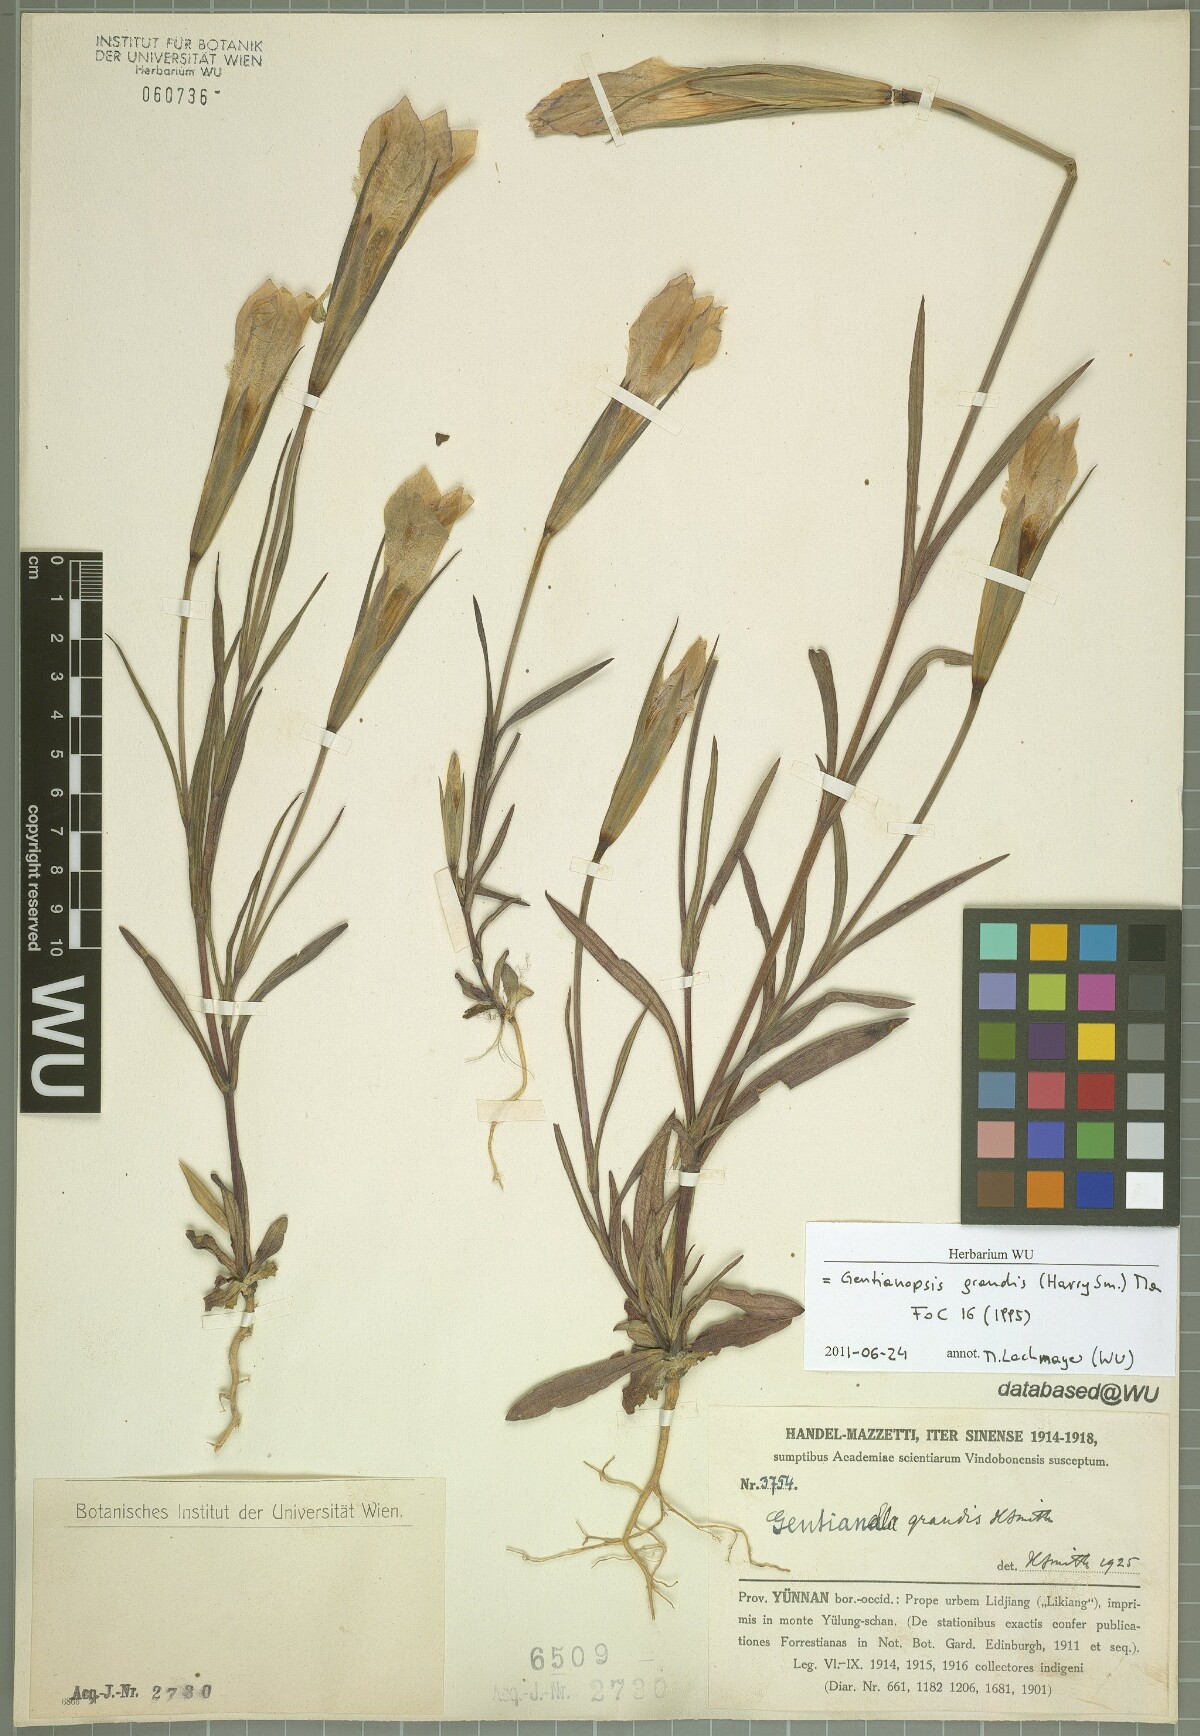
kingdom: Plantae
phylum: Tracheophyta
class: Magnoliopsida
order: Gentianales
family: Gentianaceae
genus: Gentianopsis
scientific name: Gentianopsis grandis
